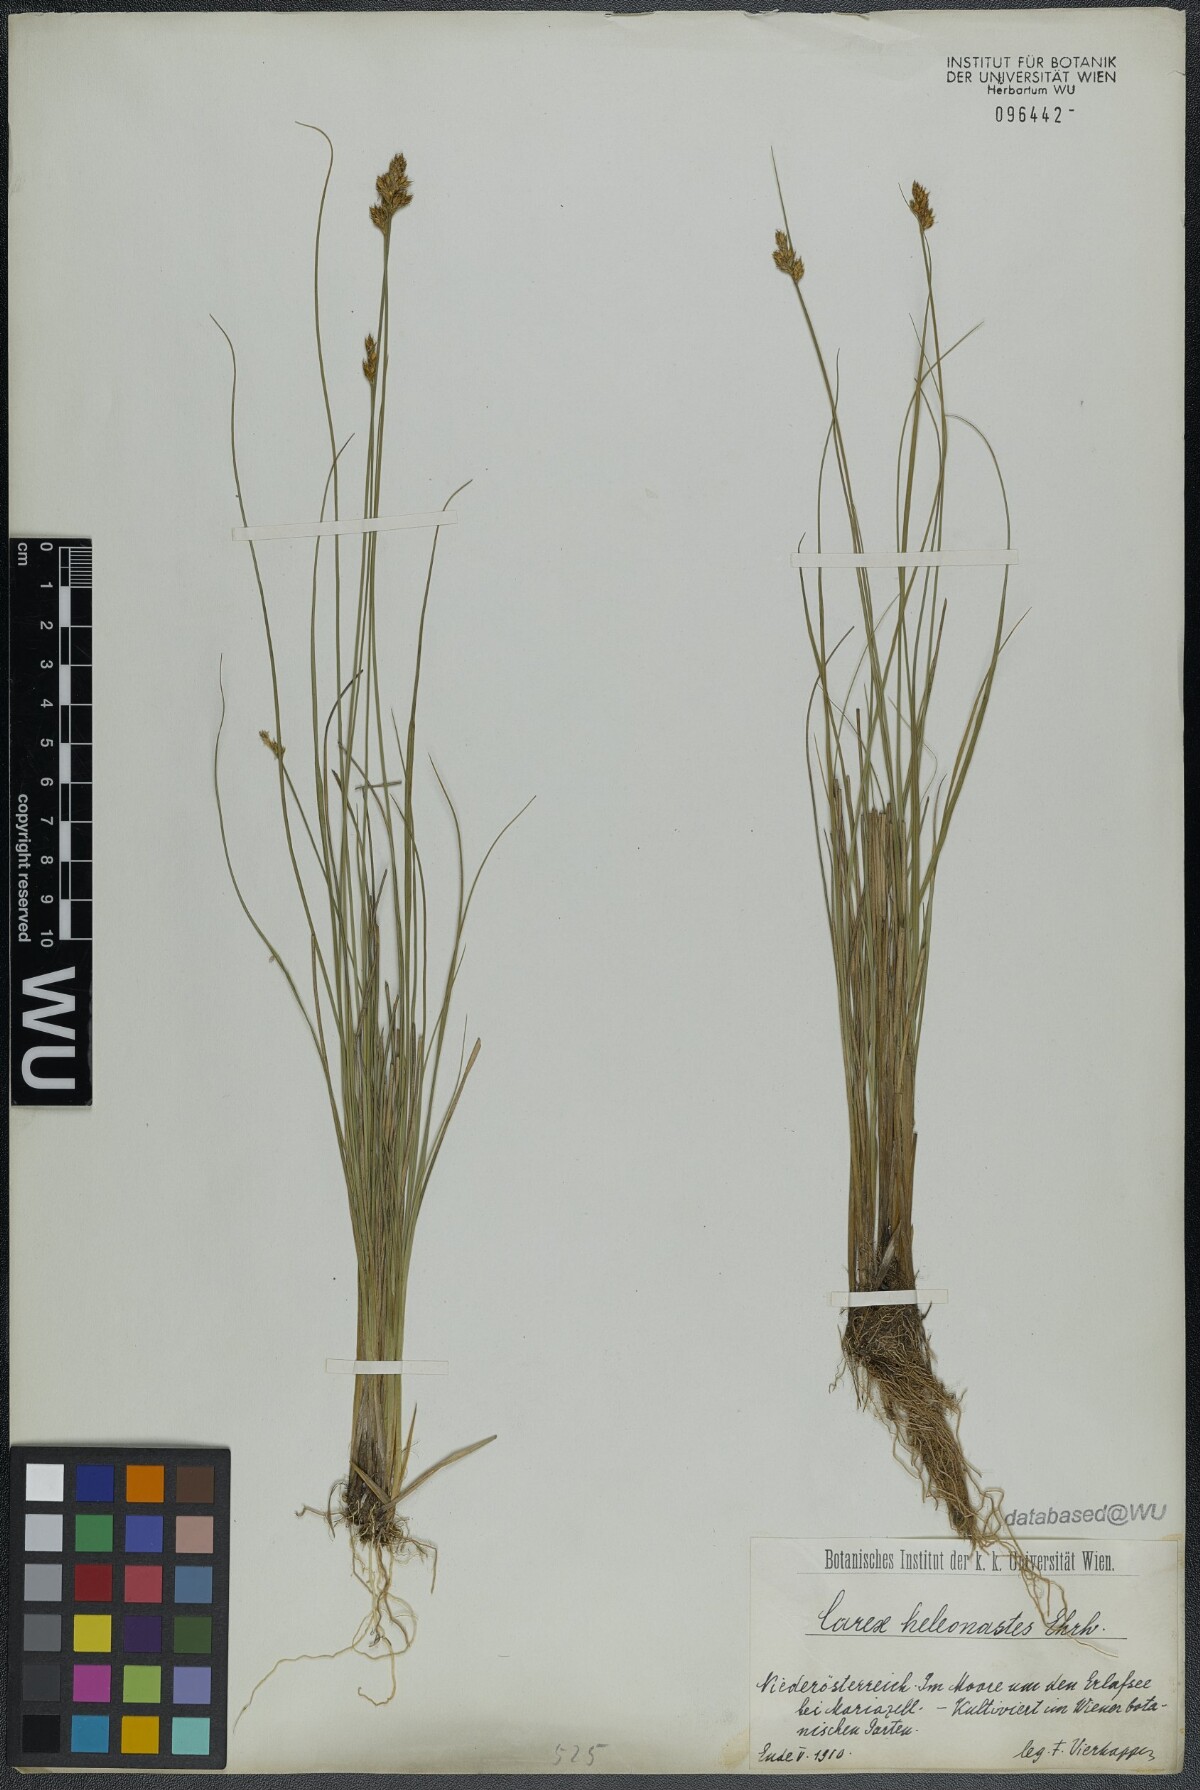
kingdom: Plantae
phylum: Tracheophyta
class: Liliopsida
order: Poales
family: Cyperaceae
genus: Carex
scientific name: Carex heleonastes
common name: Hudson bay sedge
